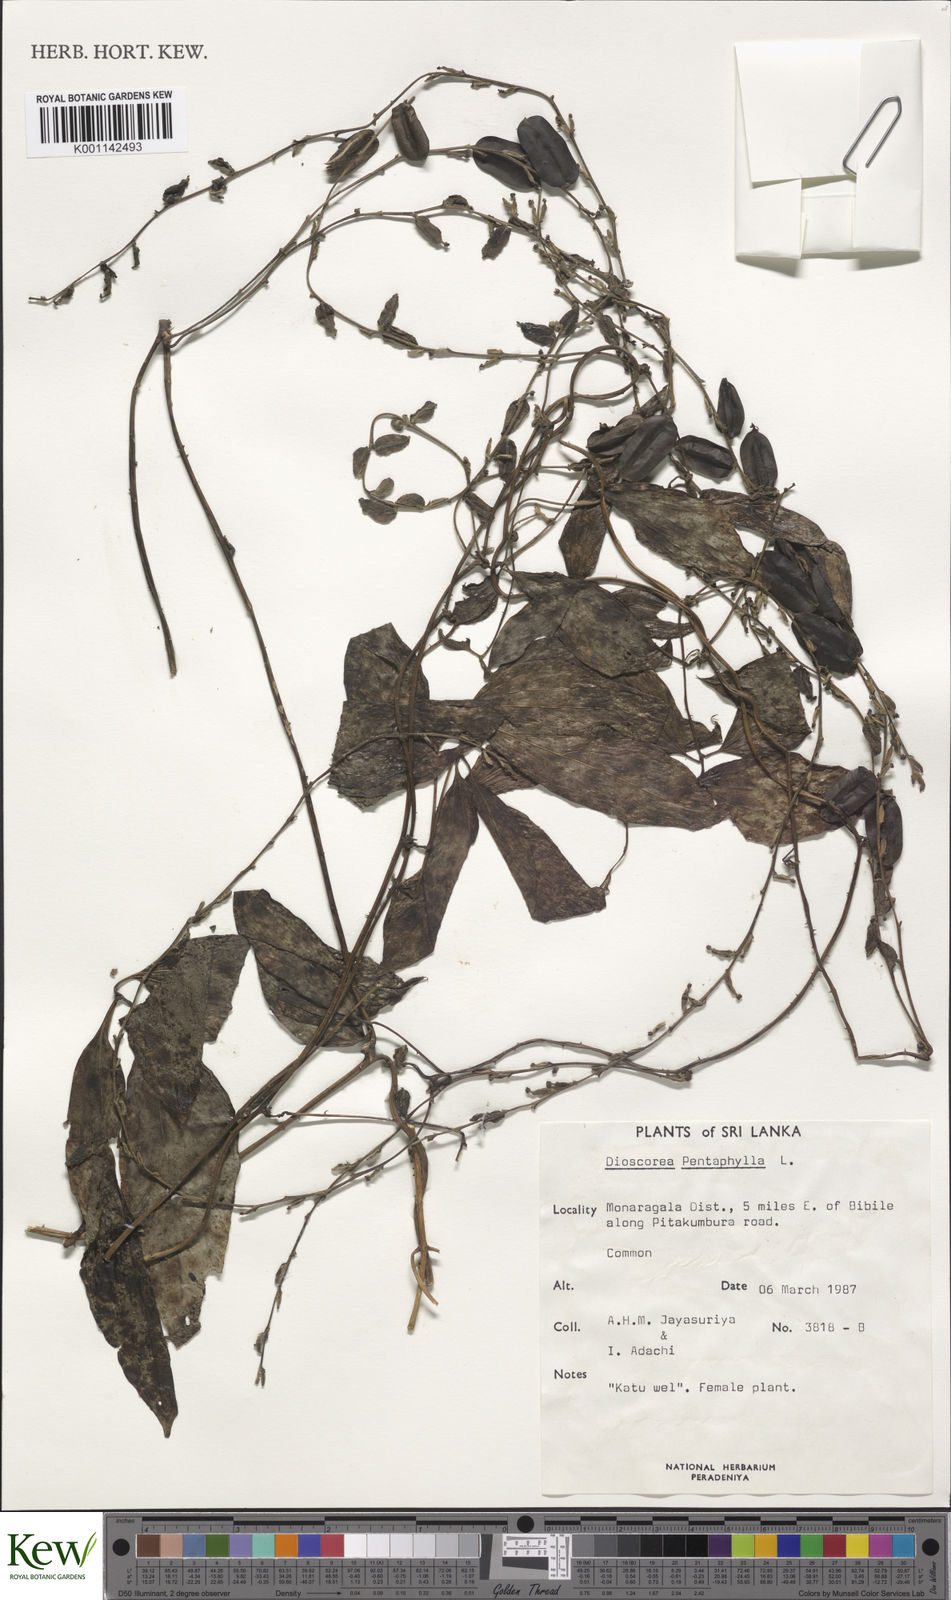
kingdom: Plantae
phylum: Tracheophyta
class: Liliopsida
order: Dioscoreales
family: Dioscoreaceae
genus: Dioscorea
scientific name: Dioscorea pentaphylla
